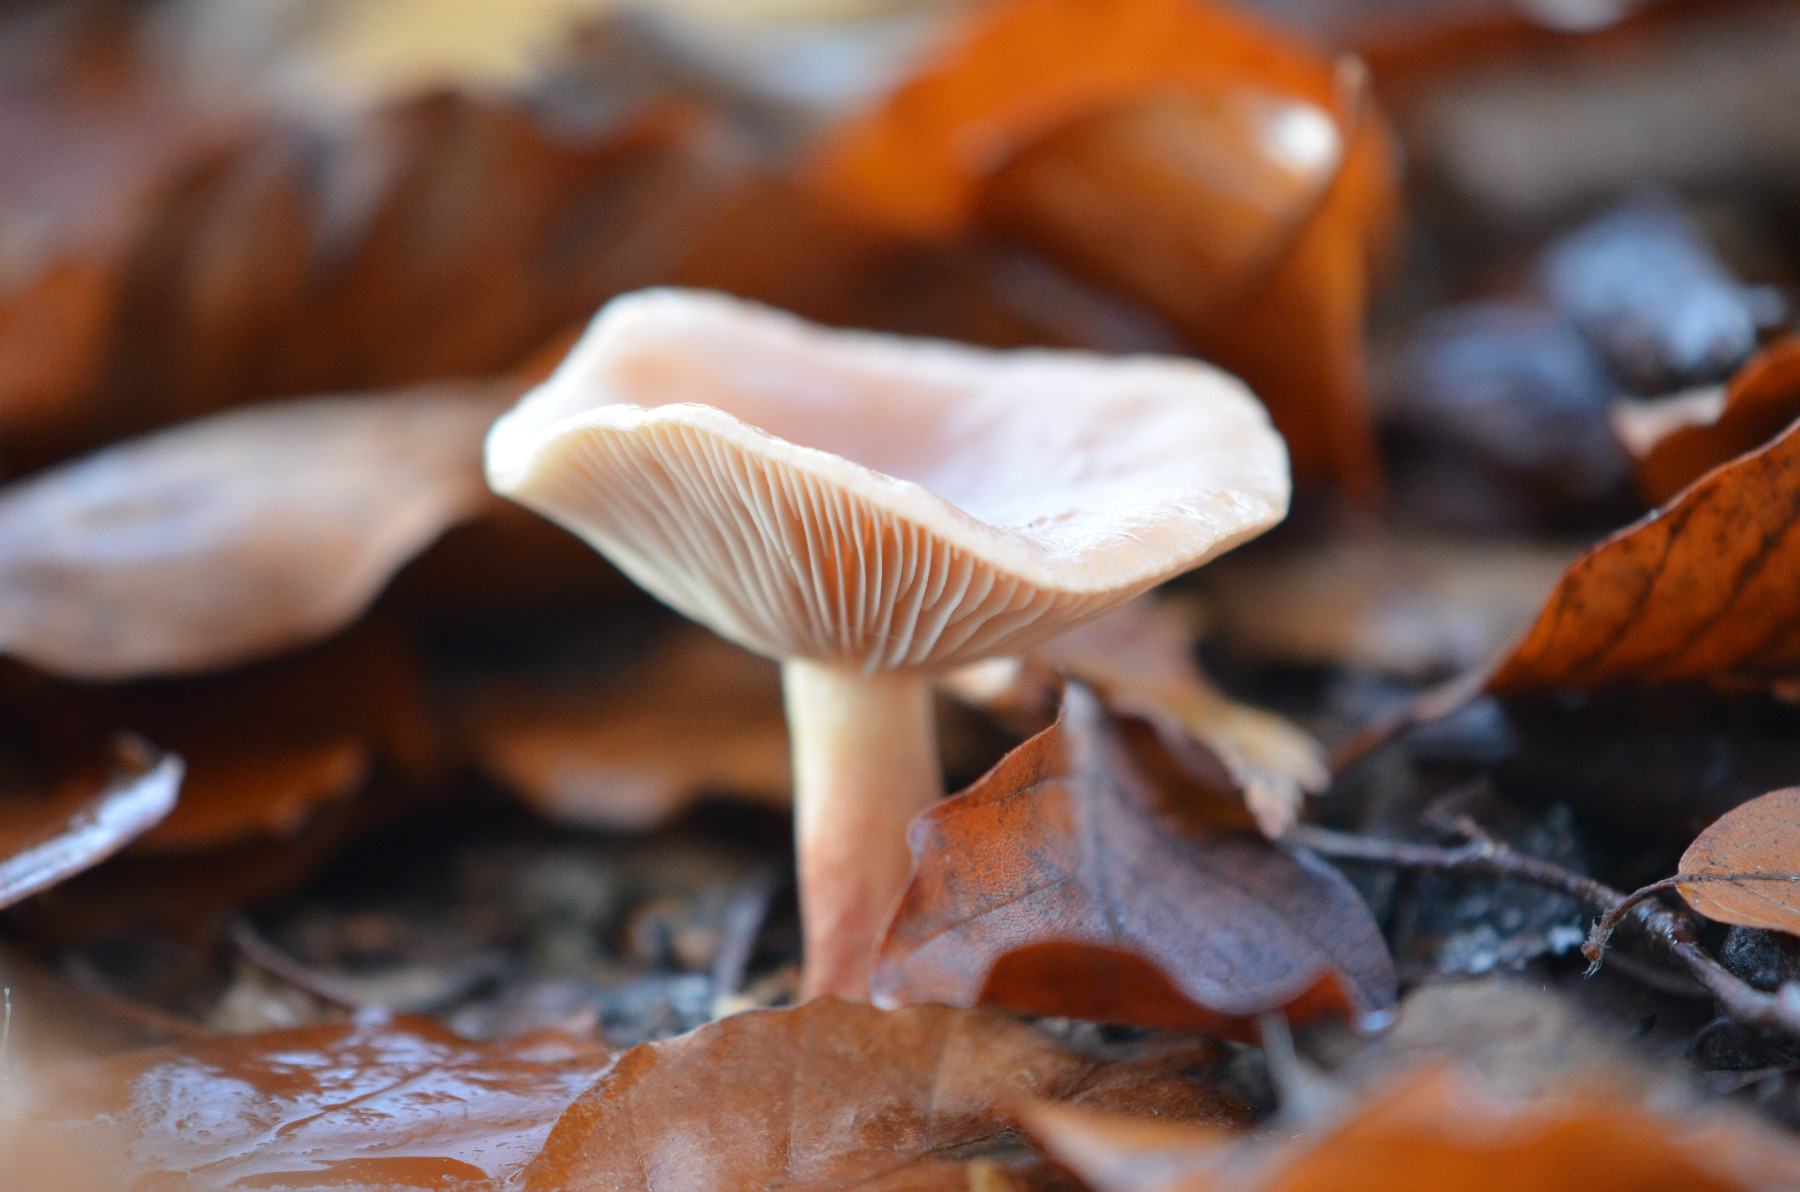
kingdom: Fungi
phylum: Basidiomycota
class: Agaricomycetes
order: Russulales
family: Russulaceae
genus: Lactarius
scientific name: Lactarius subdulcis
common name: sødlig mælkehat
